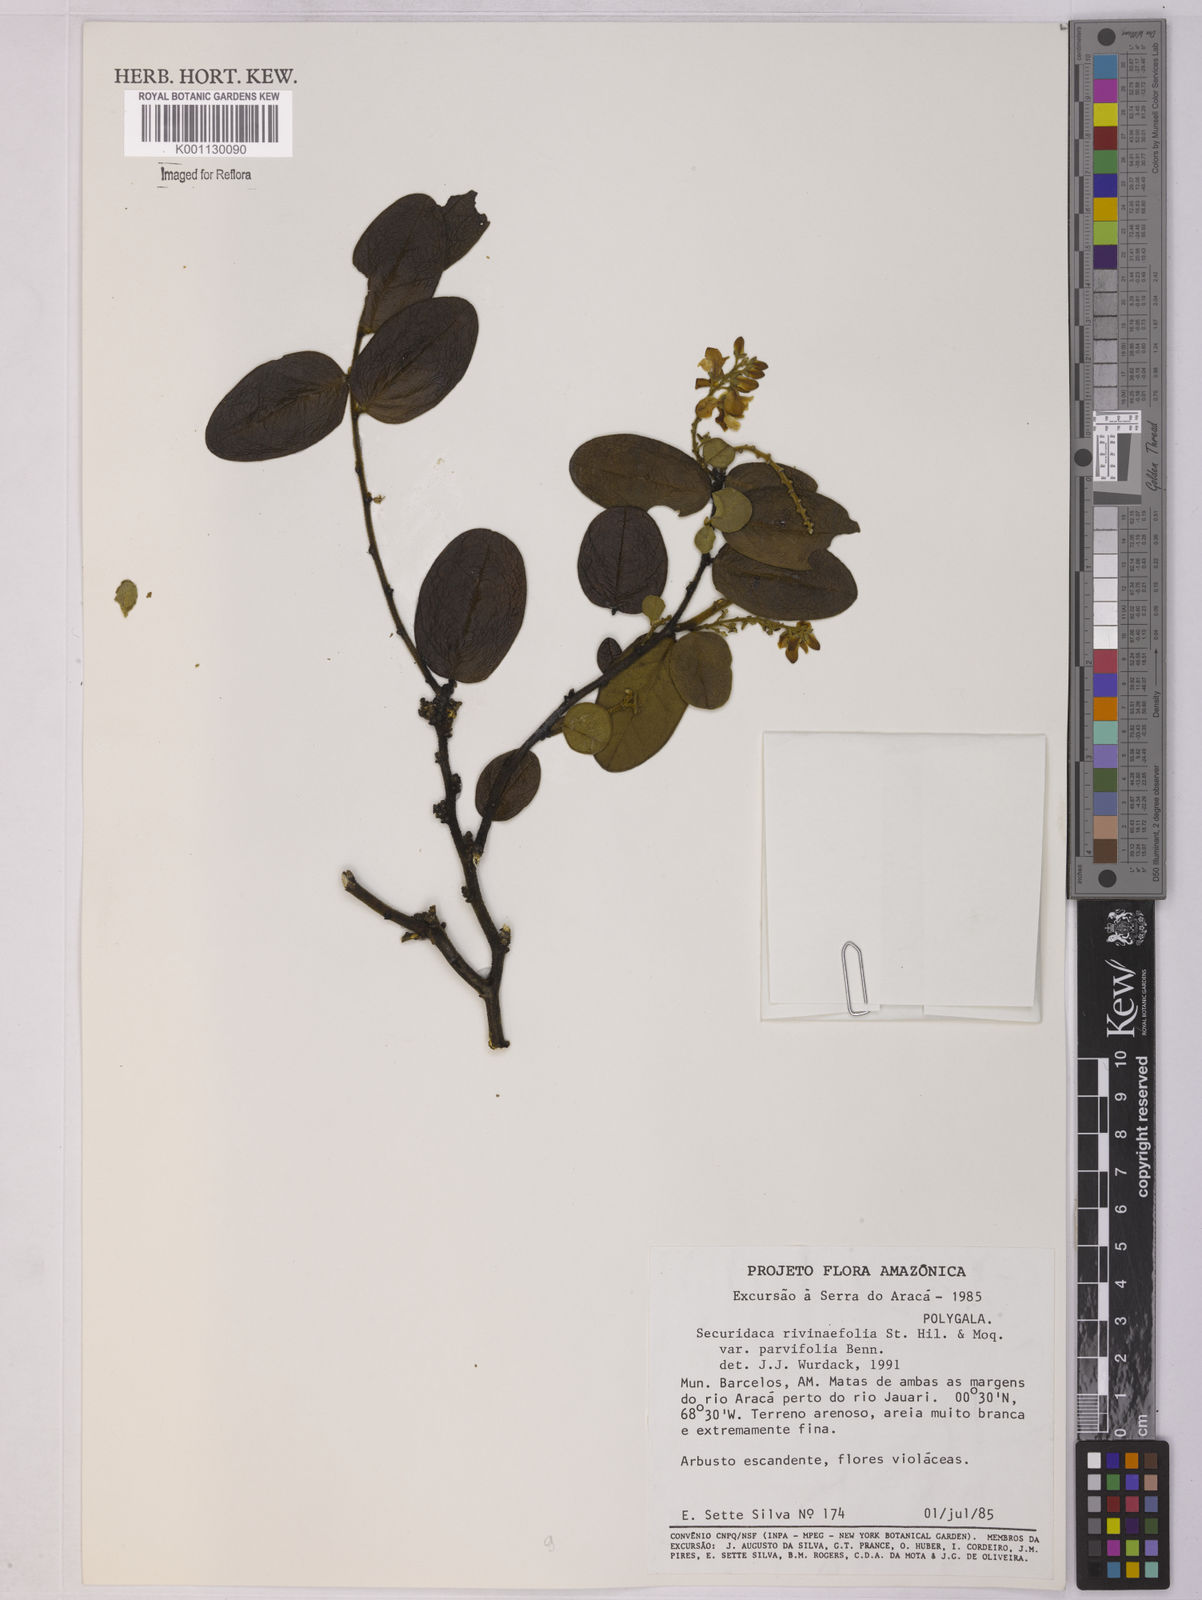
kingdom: Plantae
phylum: Tracheophyta
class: Magnoliopsida
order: Fabales
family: Polygalaceae
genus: Securidaca
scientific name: Securidaca rivinifolia
